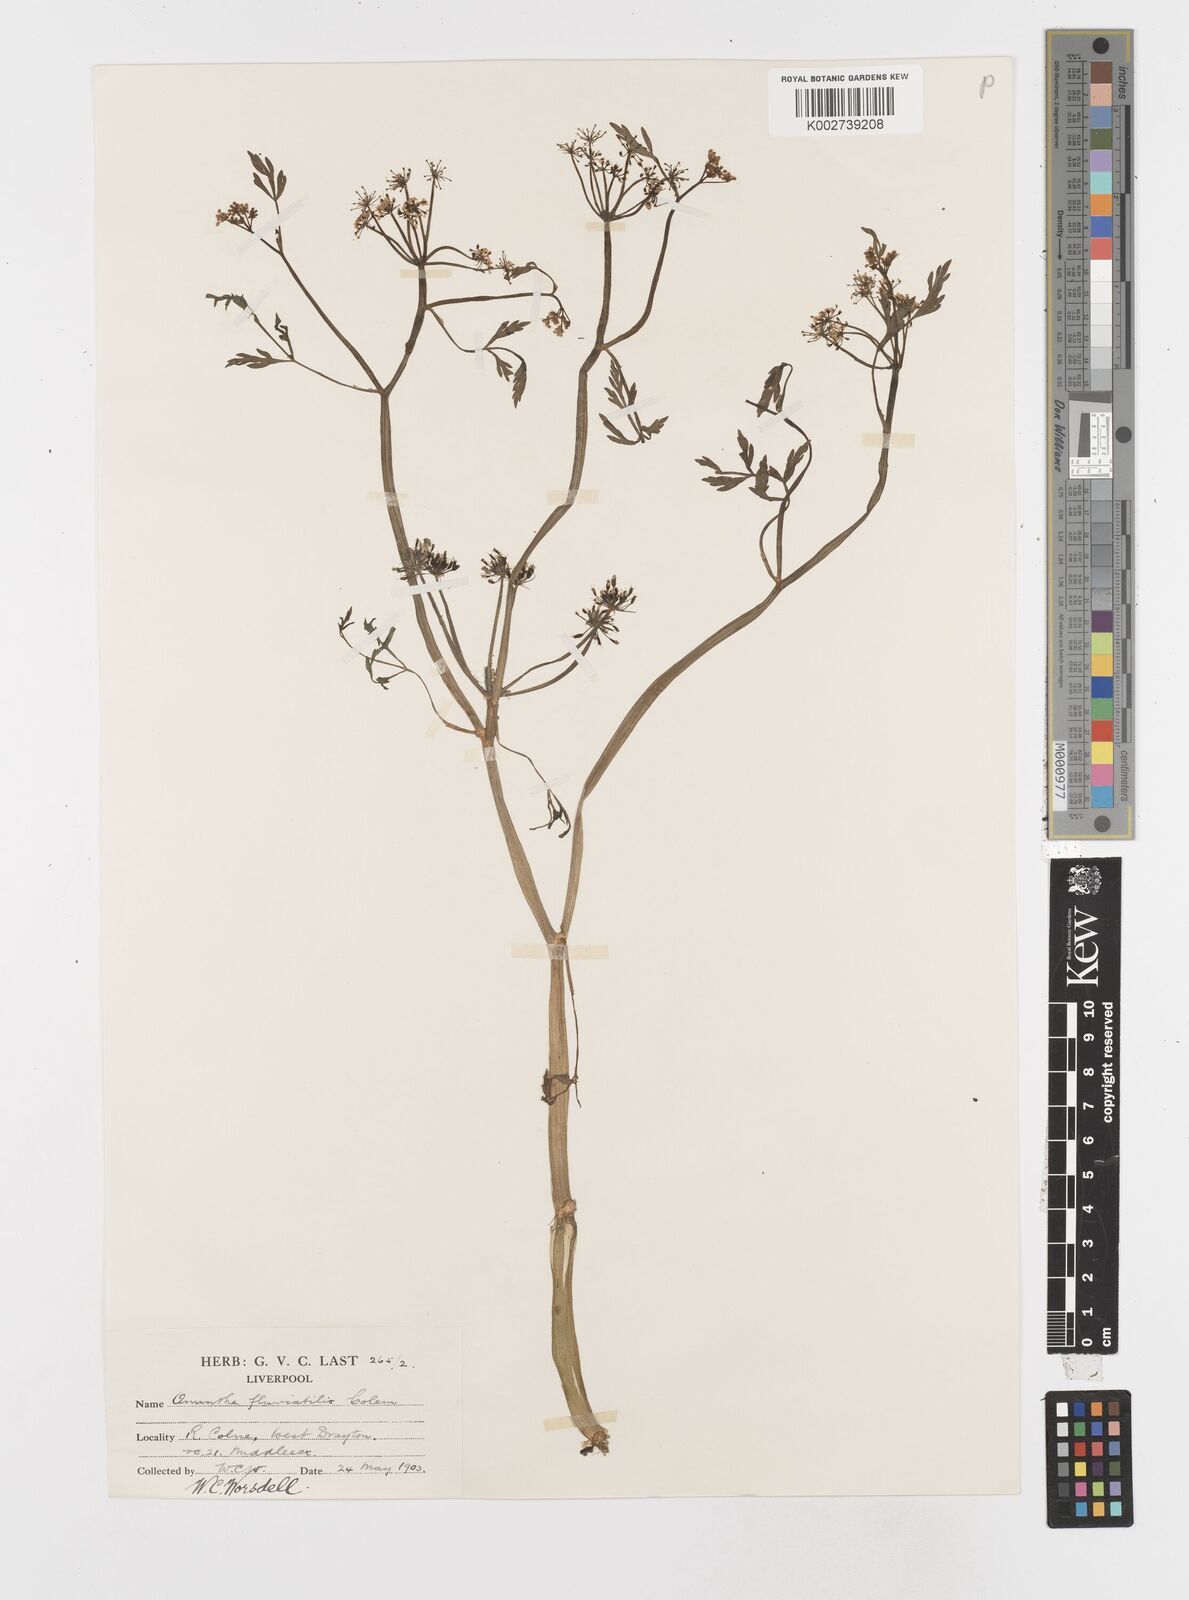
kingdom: Plantae
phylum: Tracheophyta
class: Magnoliopsida
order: Apiales
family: Apiaceae
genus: Oenanthe
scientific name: Oenanthe fluviatilis
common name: River water-dropwort
